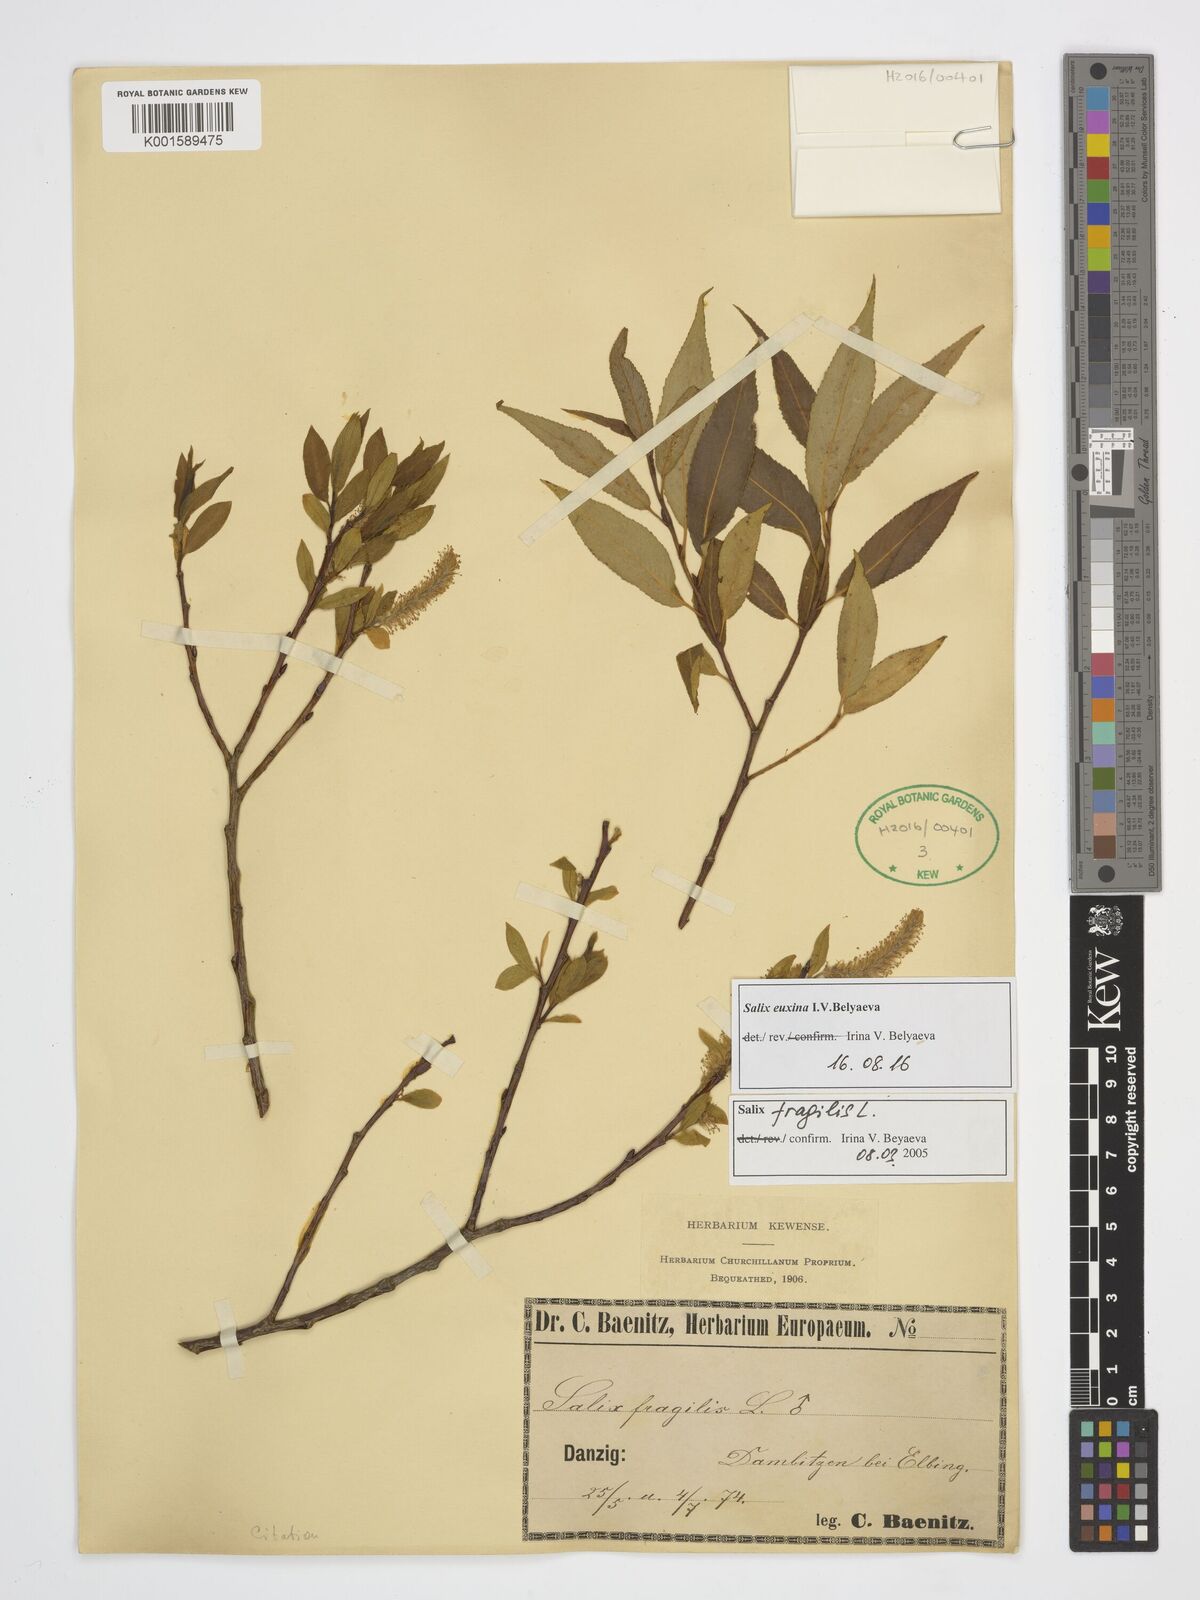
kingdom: Plantae
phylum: Tracheophyta
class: Magnoliopsida
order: Malpighiales
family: Salicaceae
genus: Salix
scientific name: Salix alba
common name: White willow
